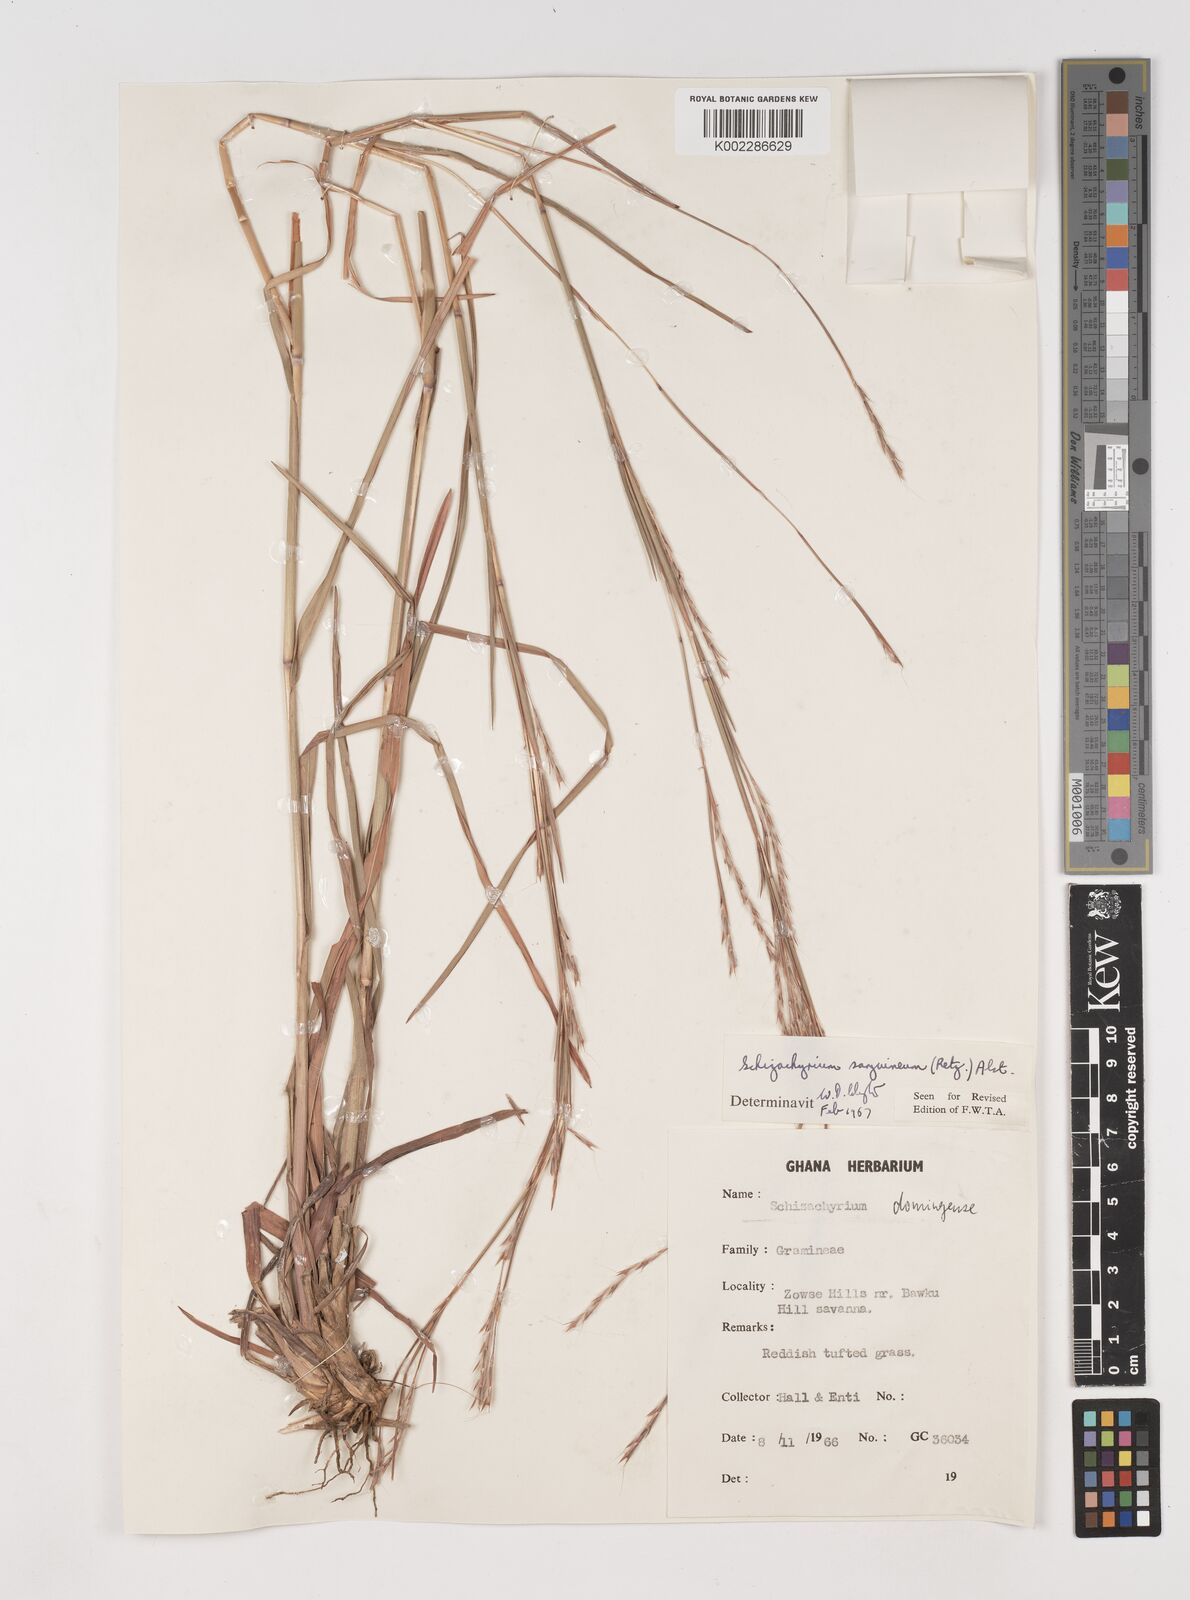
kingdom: Plantae
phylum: Tracheophyta
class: Liliopsida
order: Poales
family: Poaceae
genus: Schizachyrium
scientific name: Schizachyrium sanguineum
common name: Crimson bluestem
